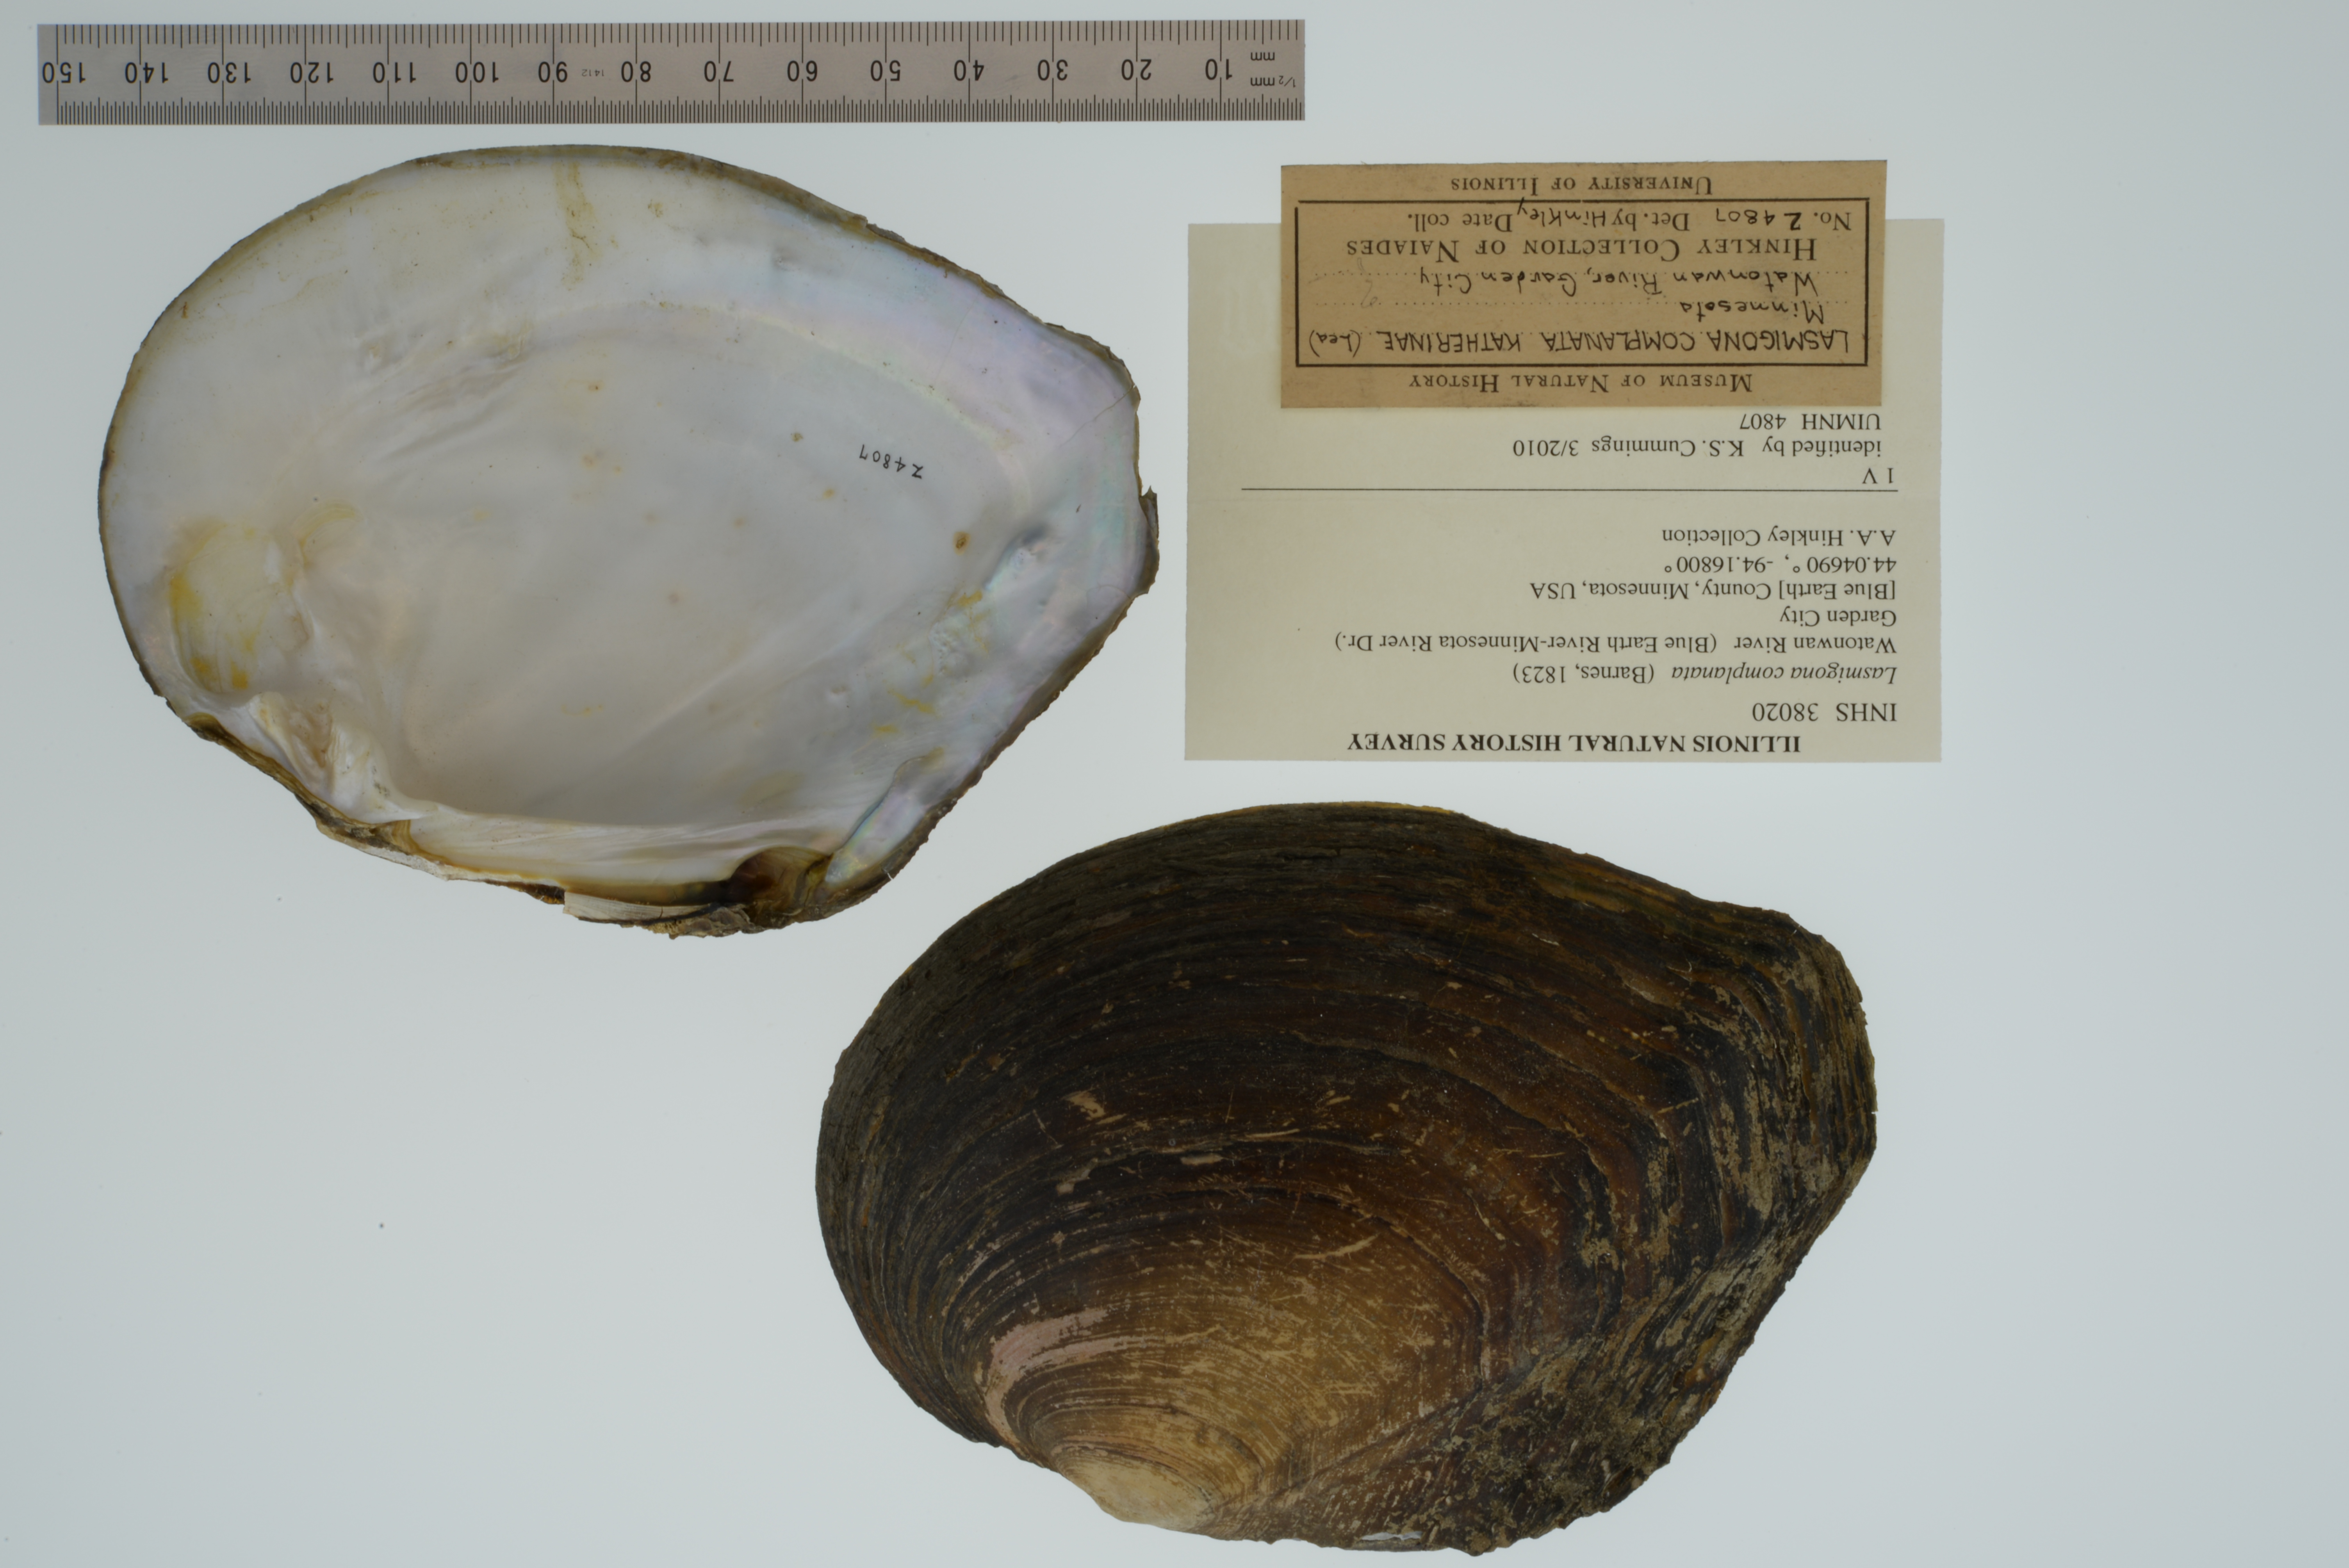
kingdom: Animalia
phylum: Mollusca
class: Bivalvia
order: Unionida
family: Unionidae
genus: Lasmigona
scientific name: Lasmigona complanata
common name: White heelsplitter
